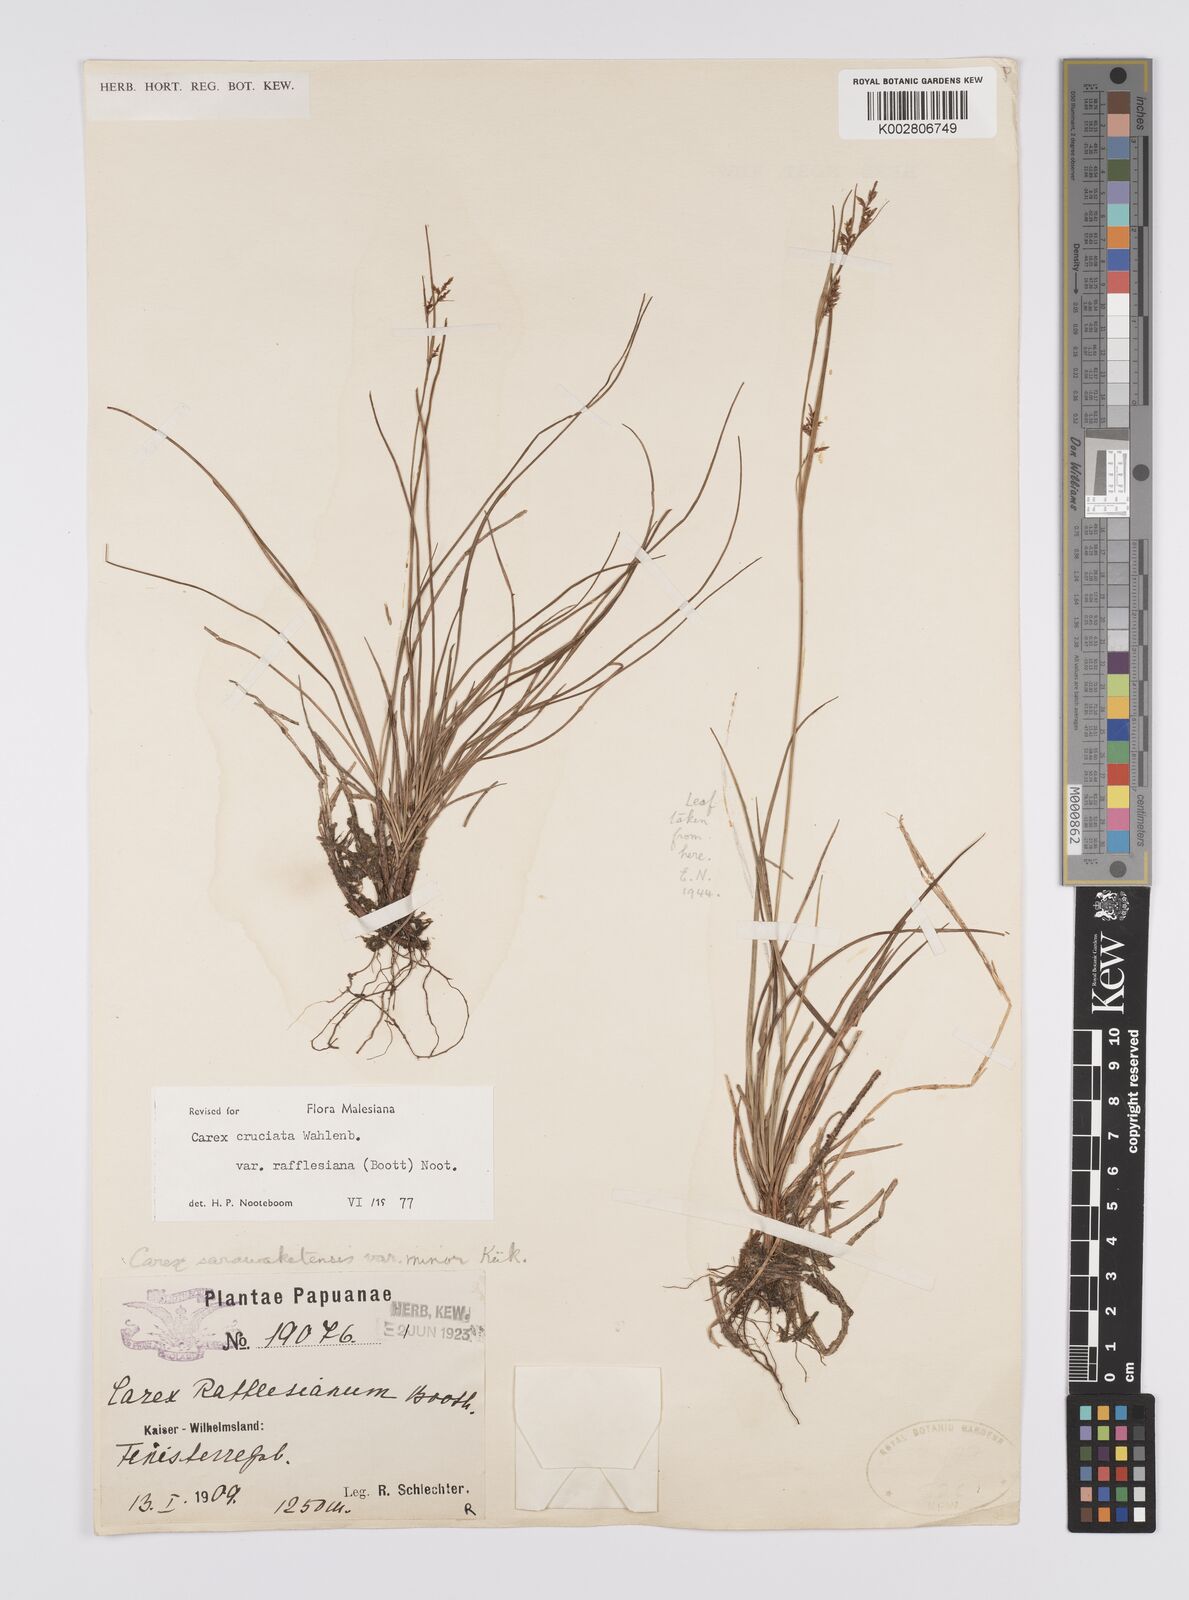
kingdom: Plantae
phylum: Tracheophyta
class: Liliopsida
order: Poales
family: Cyperaceae
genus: Carex
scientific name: Carex rafflesiana
